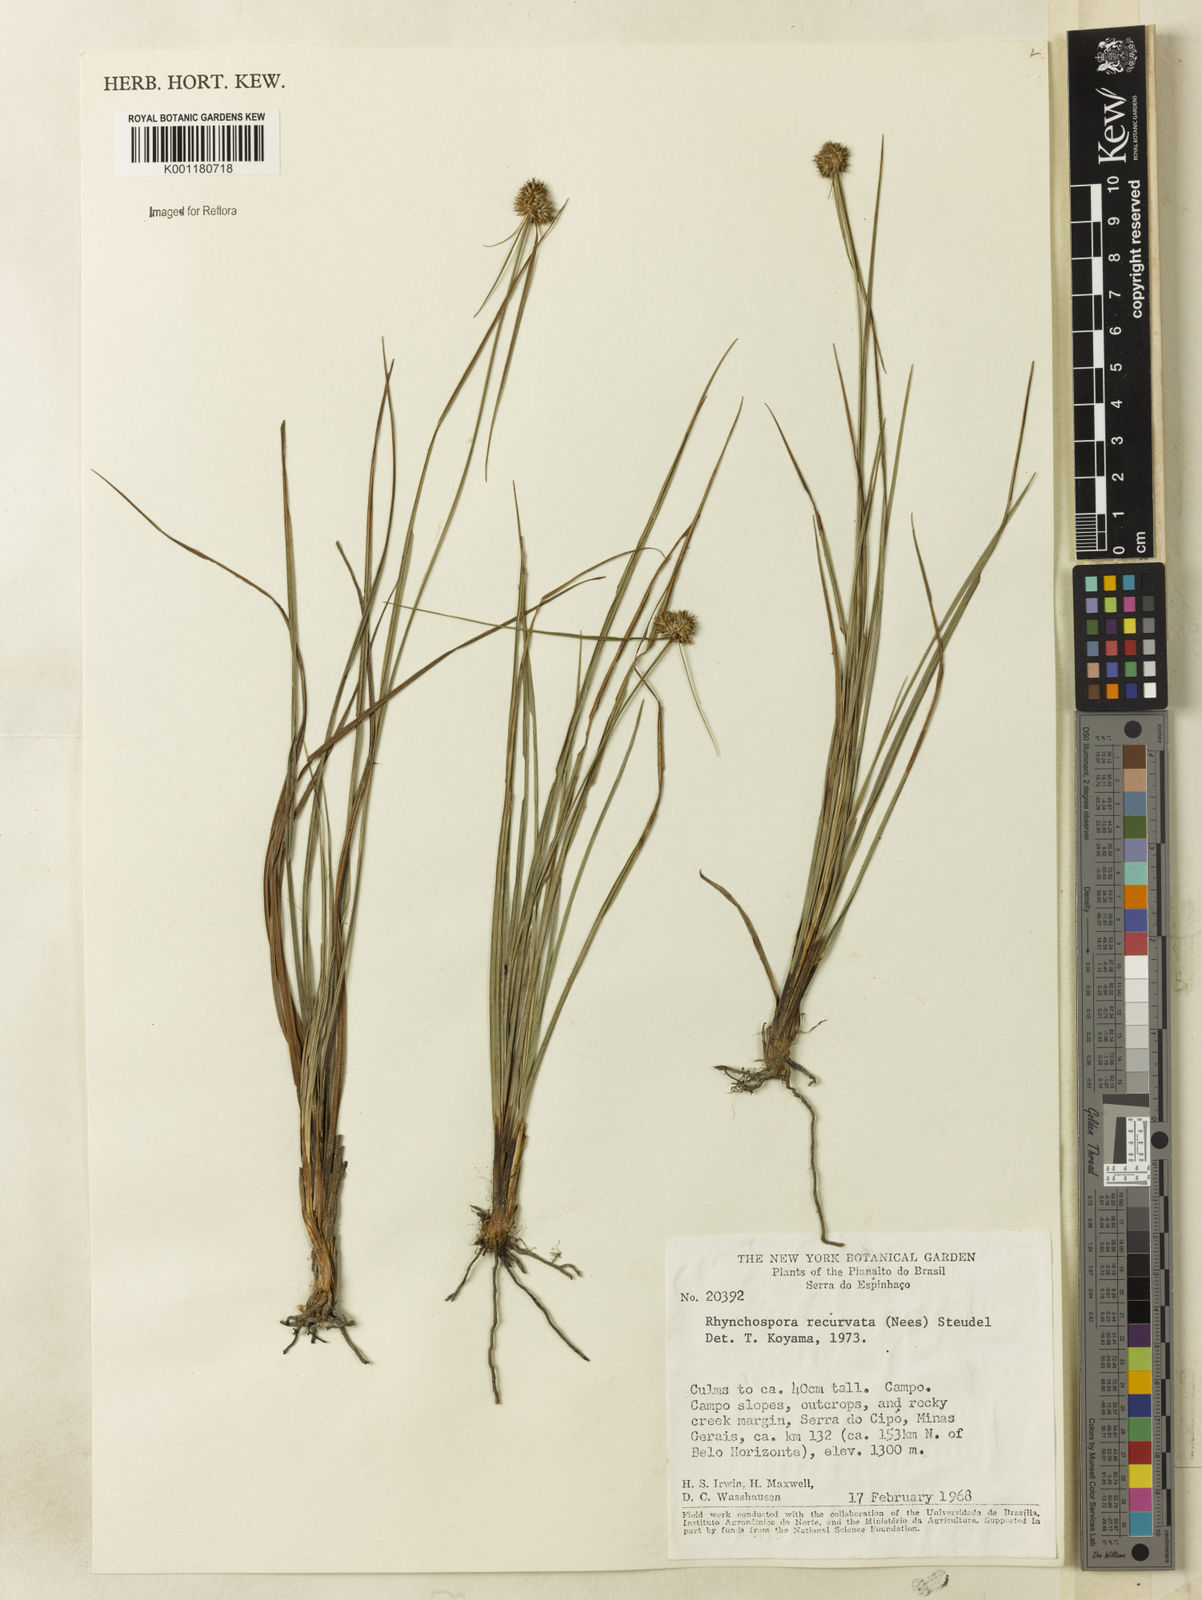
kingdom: Plantae
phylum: Tracheophyta
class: Liliopsida
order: Poales
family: Cyperaceae
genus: Rhynchospora
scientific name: Rhynchospora recurvata
